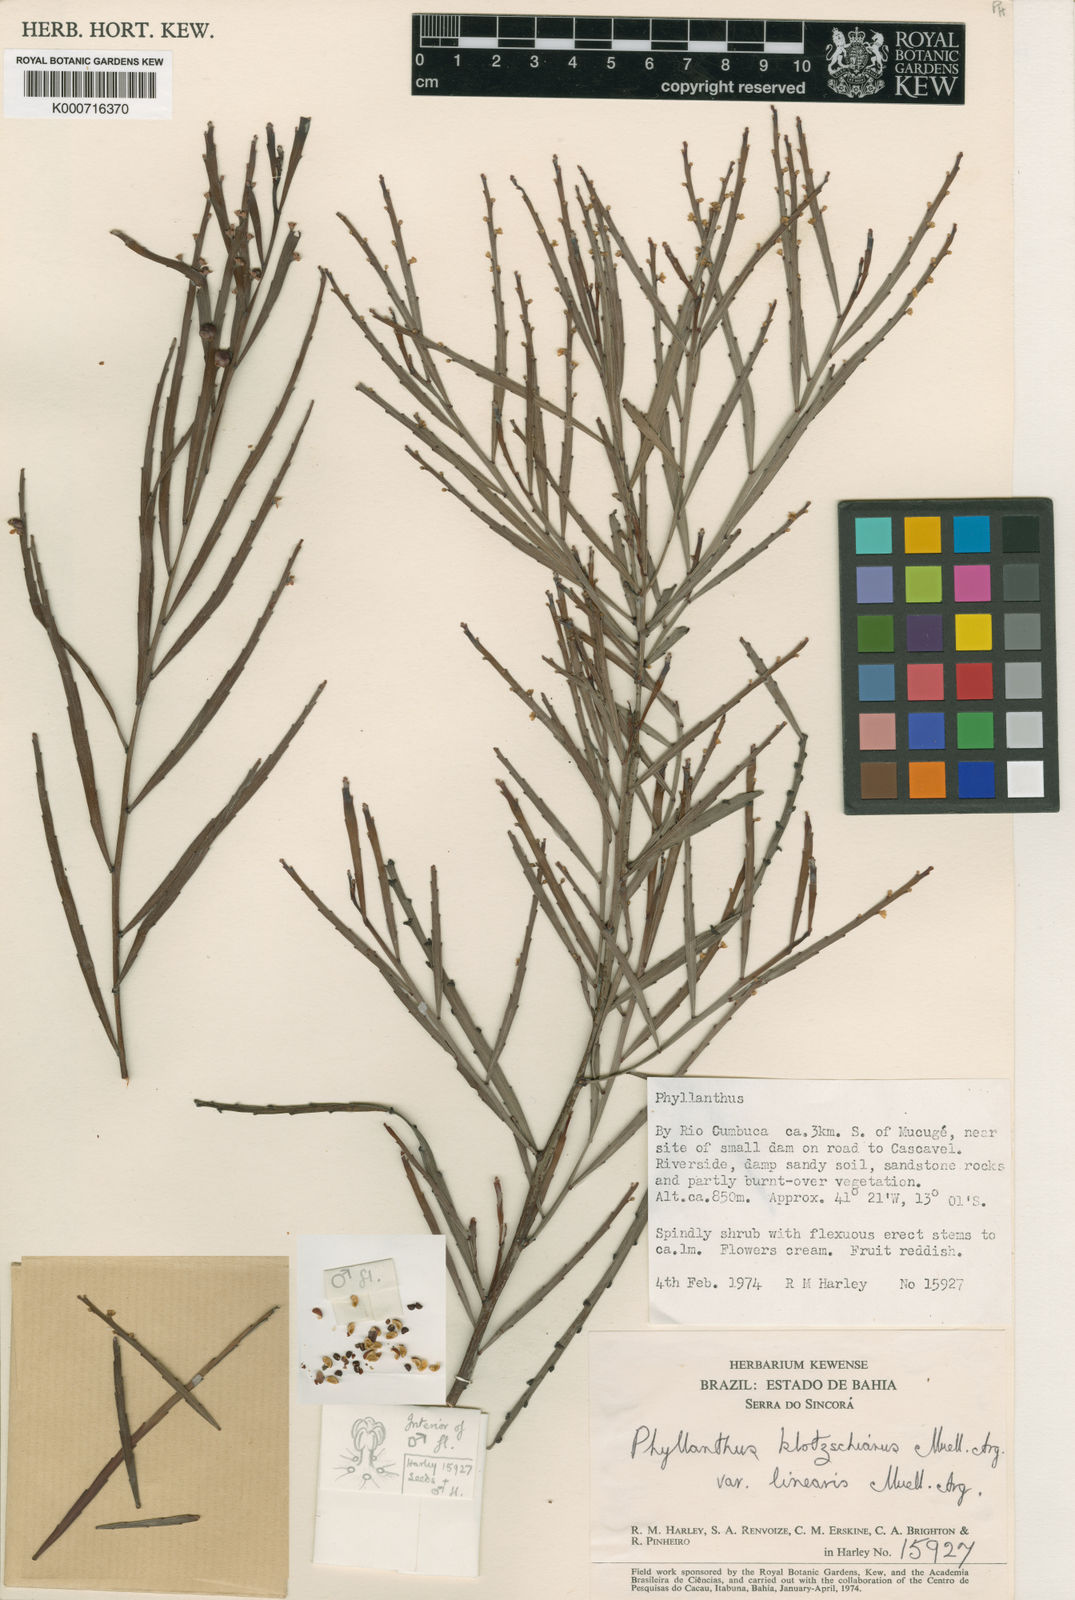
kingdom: Plantae
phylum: Tracheophyta
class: Magnoliopsida
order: Malpighiales
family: Phyllanthaceae
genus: Phyllanthus
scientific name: Phyllanthus
